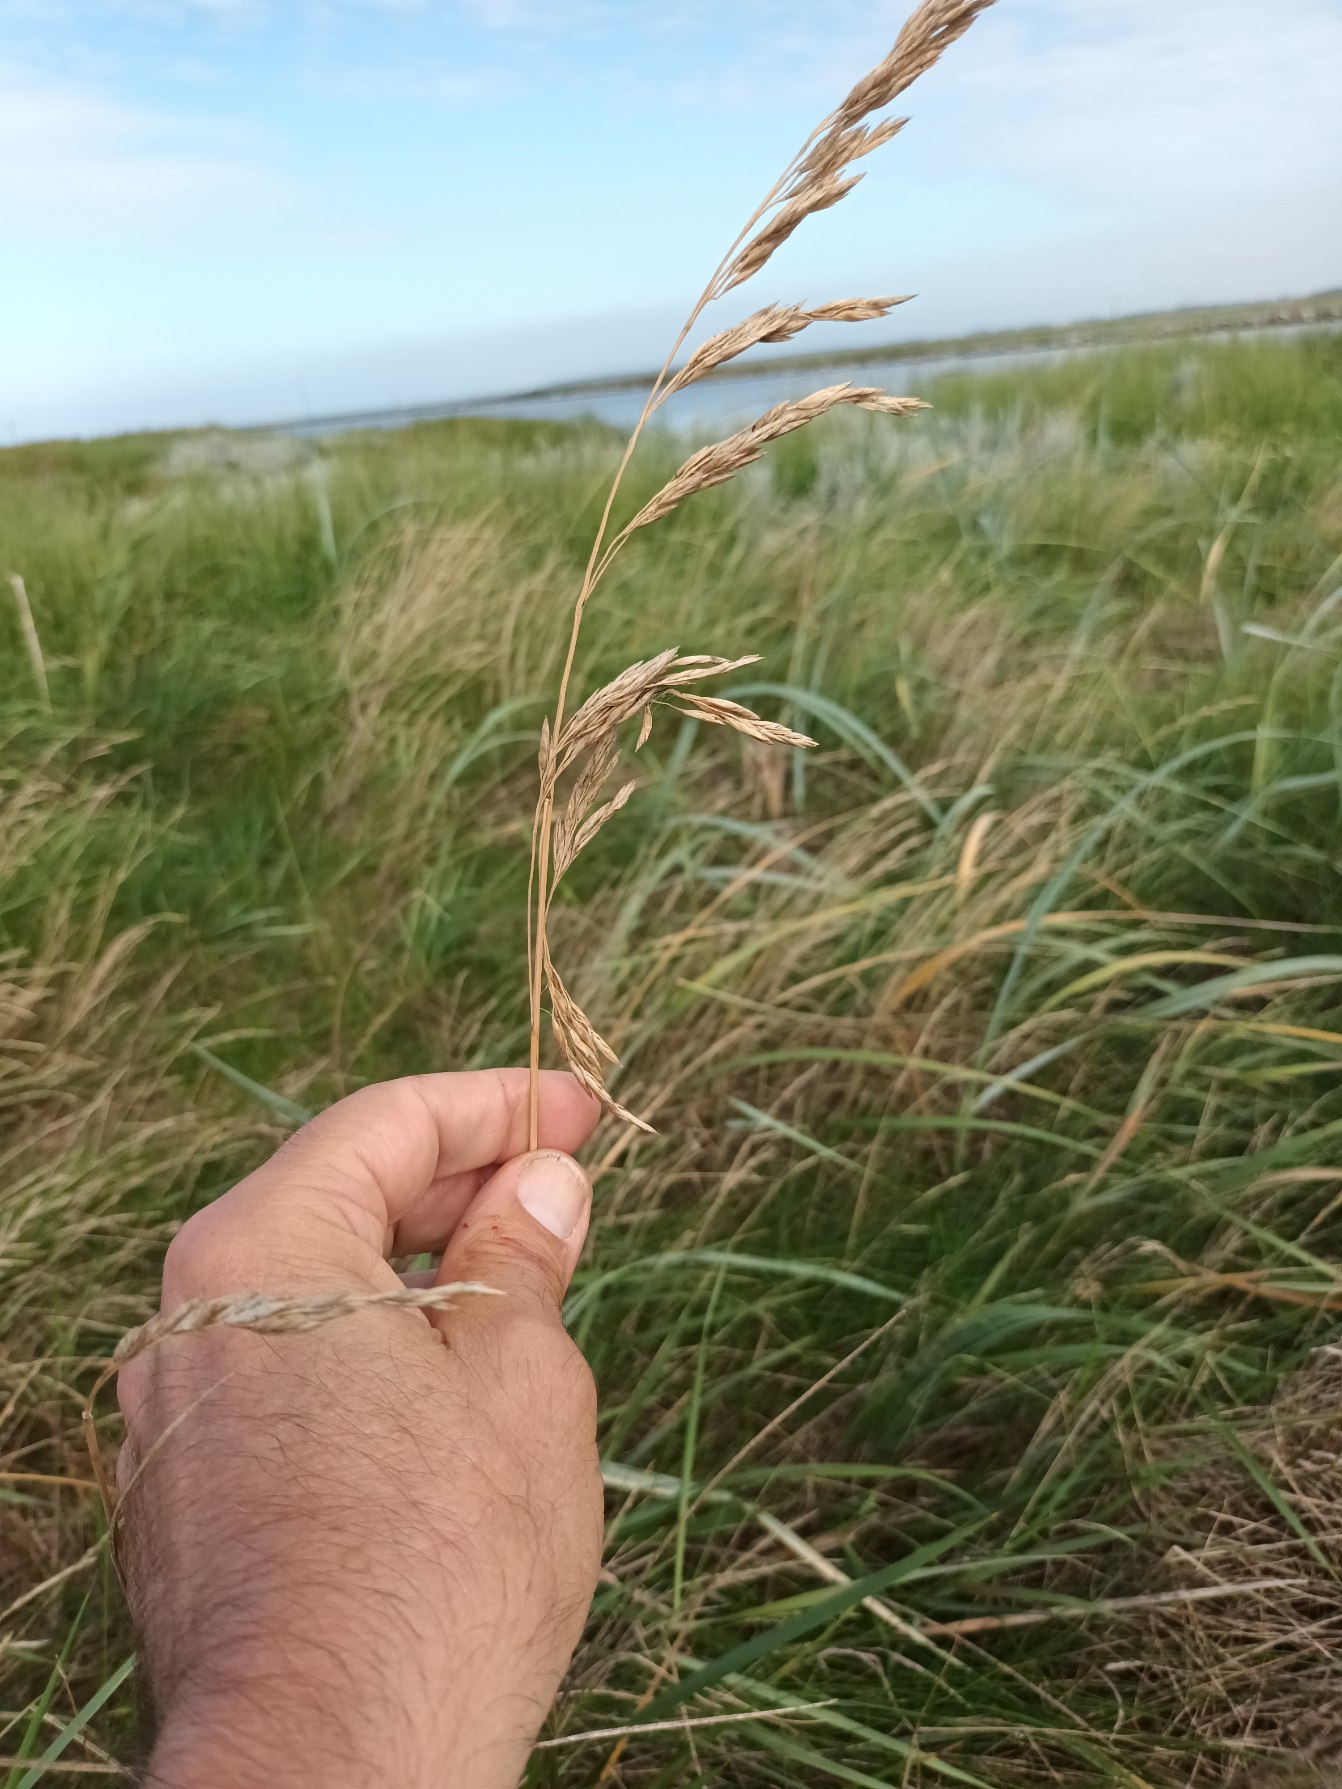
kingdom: Plantae
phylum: Tracheophyta
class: Liliopsida
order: Poales
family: Poaceae
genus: Lolium
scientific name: Lolium arundinaceum
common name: Strand-svingel
